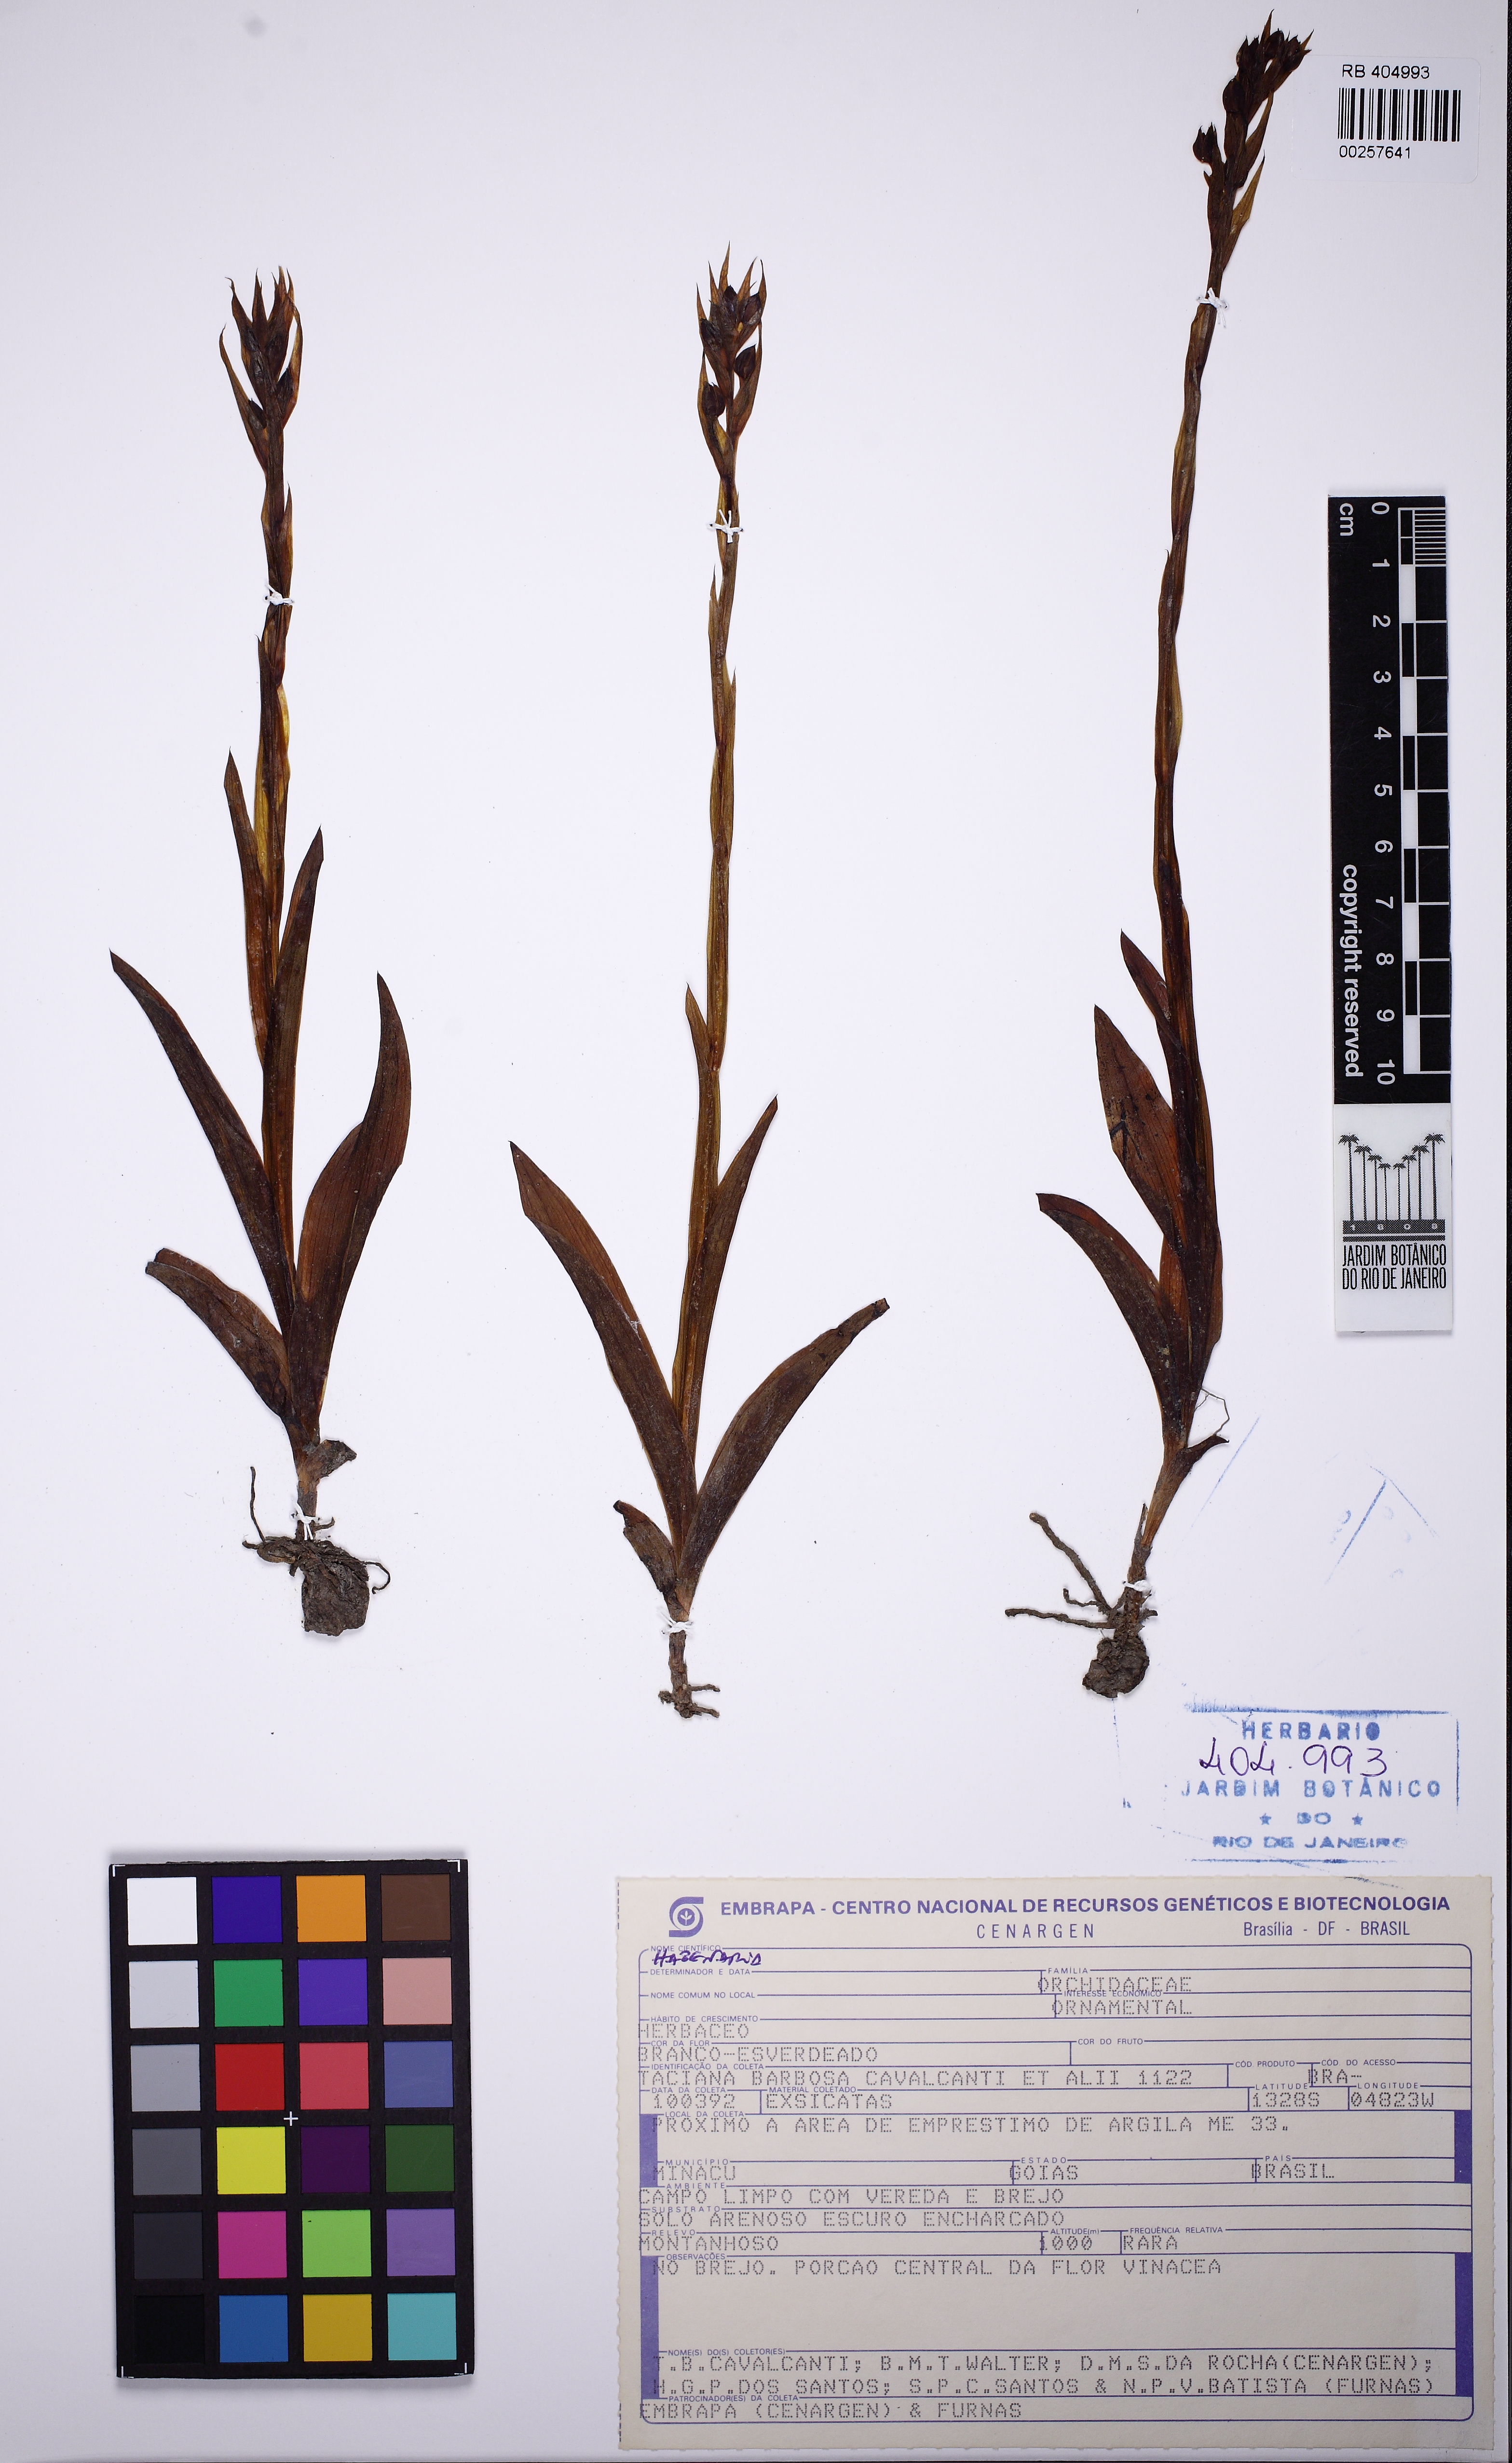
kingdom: Plantae
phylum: Tracheophyta
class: Liliopsida
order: Asparagales
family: Orchidaceae
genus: Habenaria
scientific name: Habenaria
